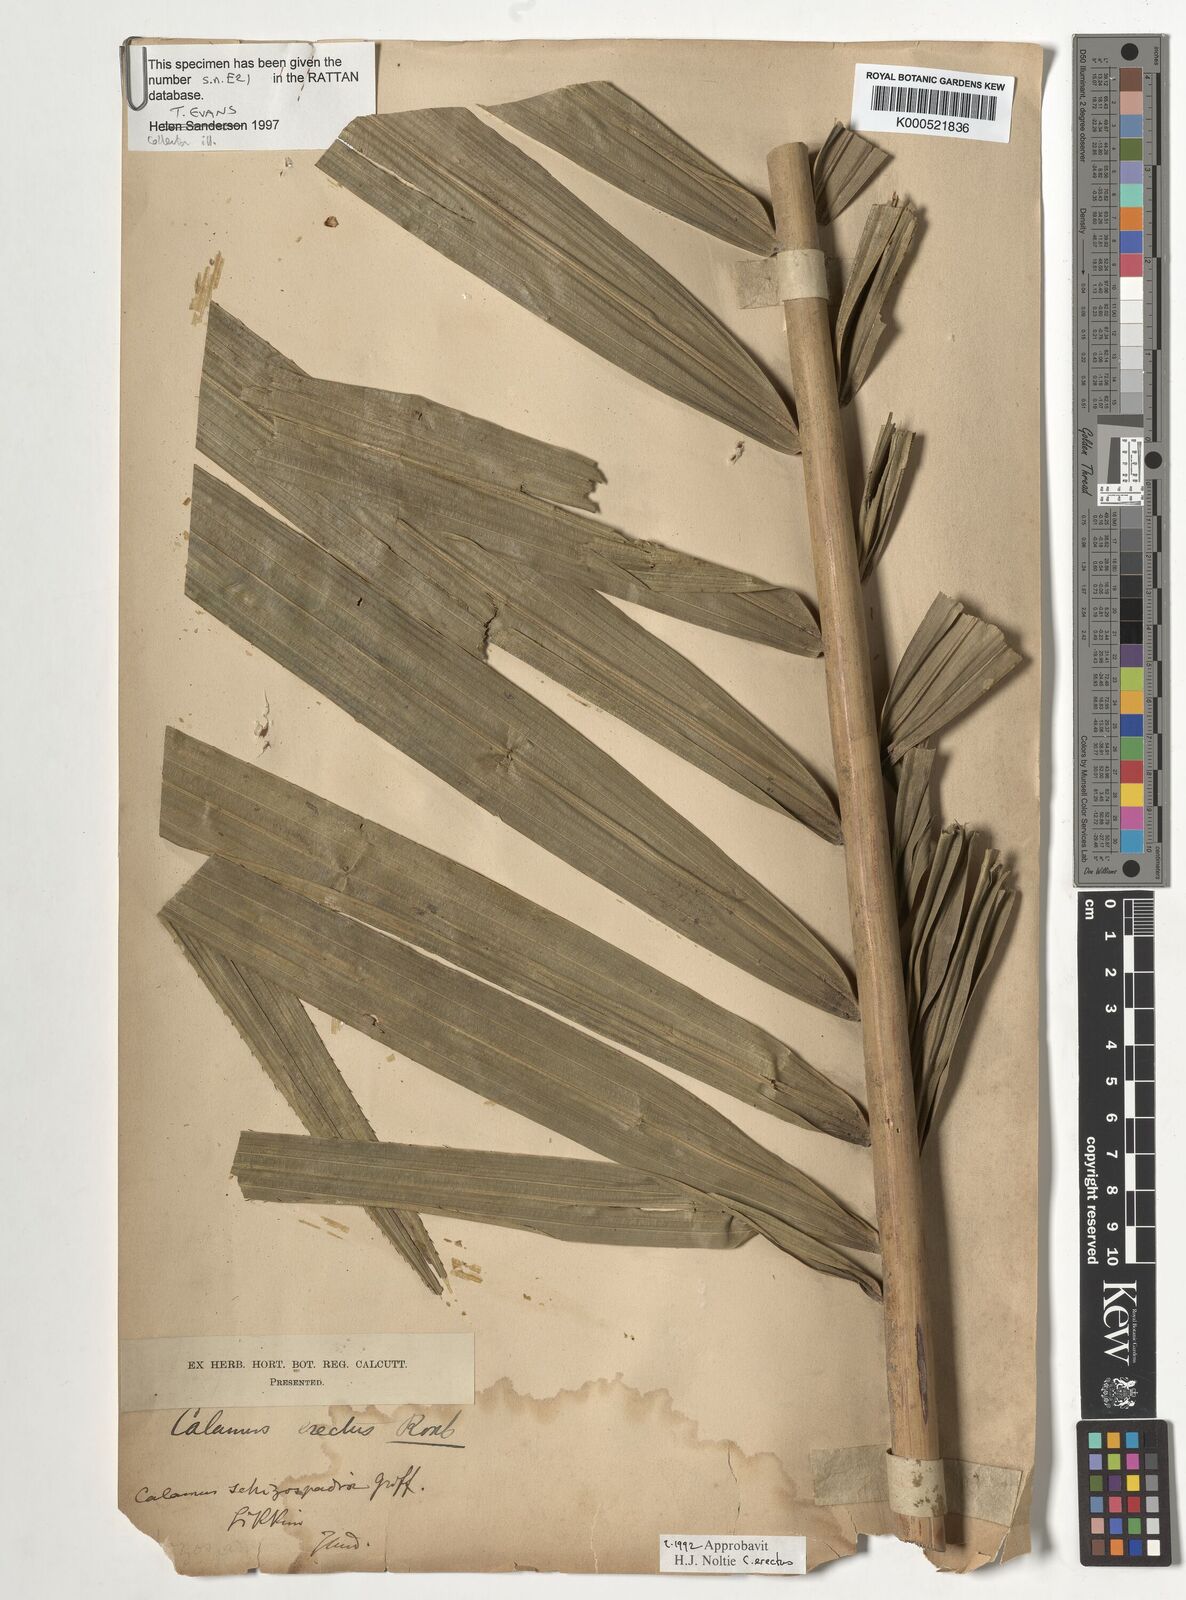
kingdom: Plantae
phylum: Tracheophyta
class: Liliopsida
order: Arecales
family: Arecaceae
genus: Calamus
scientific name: Calamus erectus
